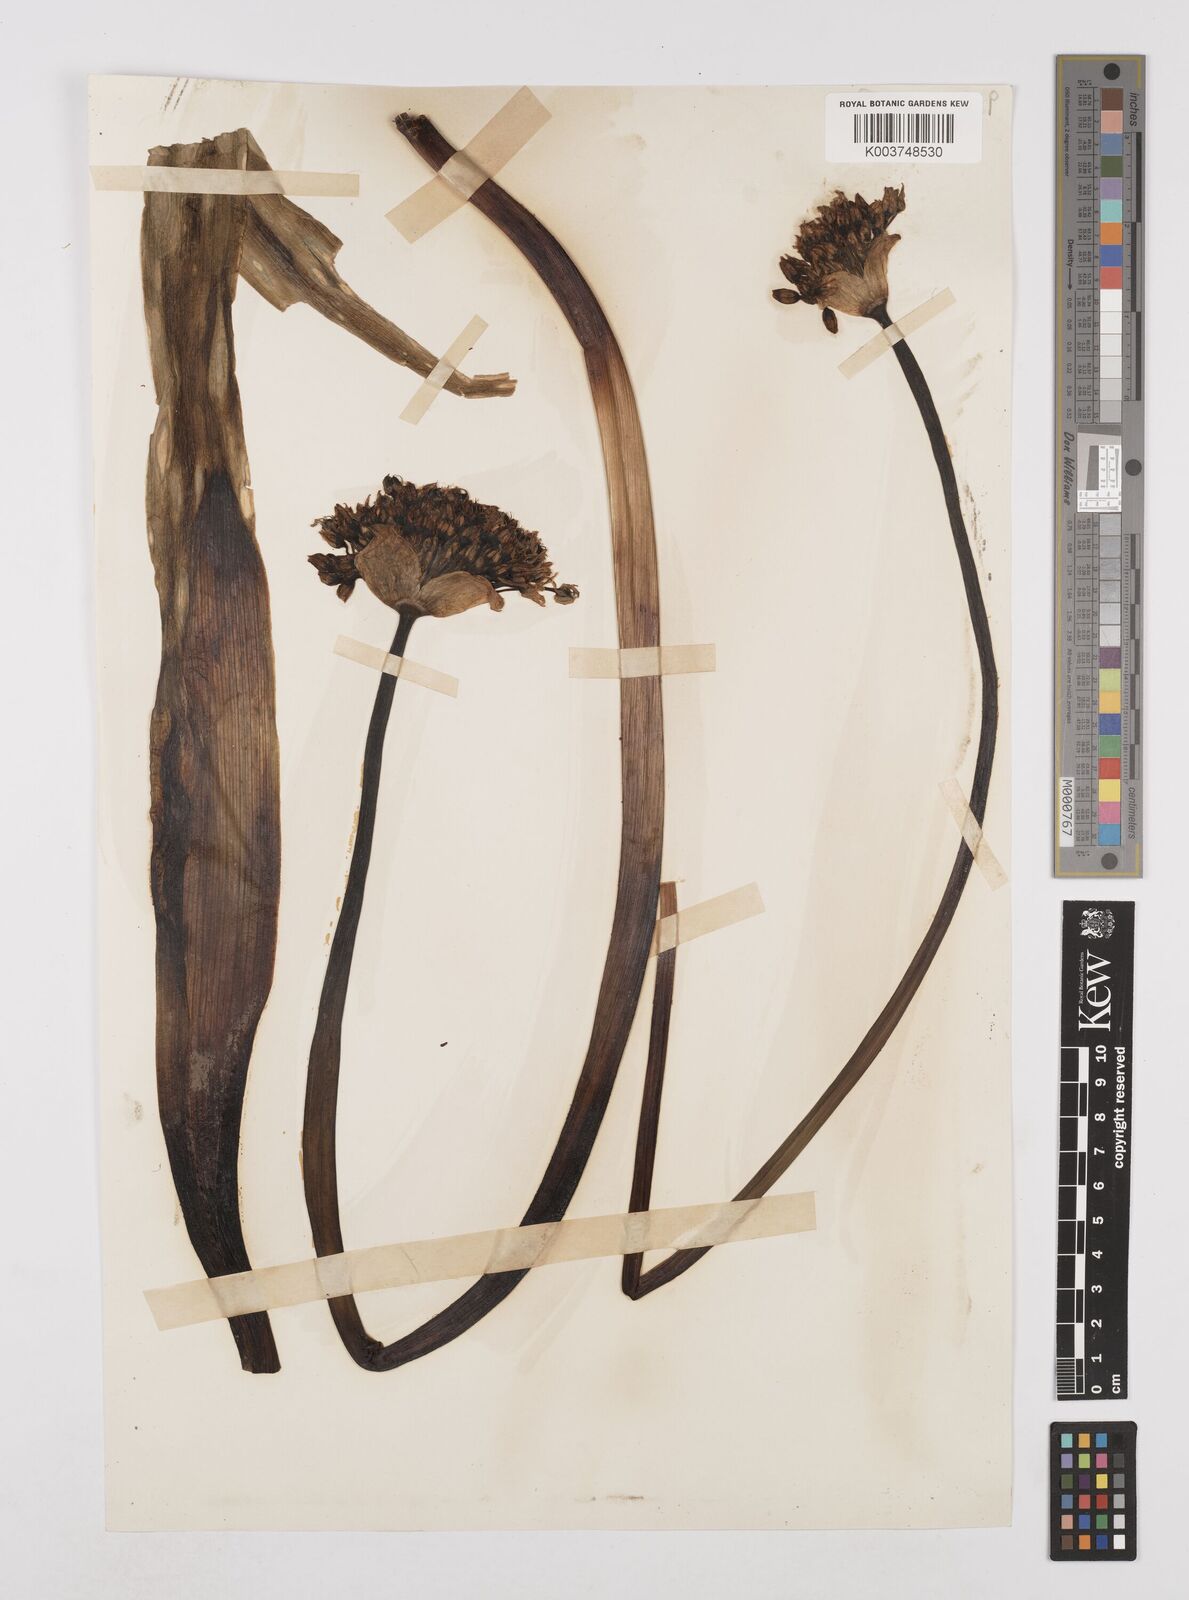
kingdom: Plantae
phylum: Tracheophyta
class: Liliopsida
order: Asparagales
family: Amaryllidaceae
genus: Allium
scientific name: Allium nigrum
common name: Black garlic
